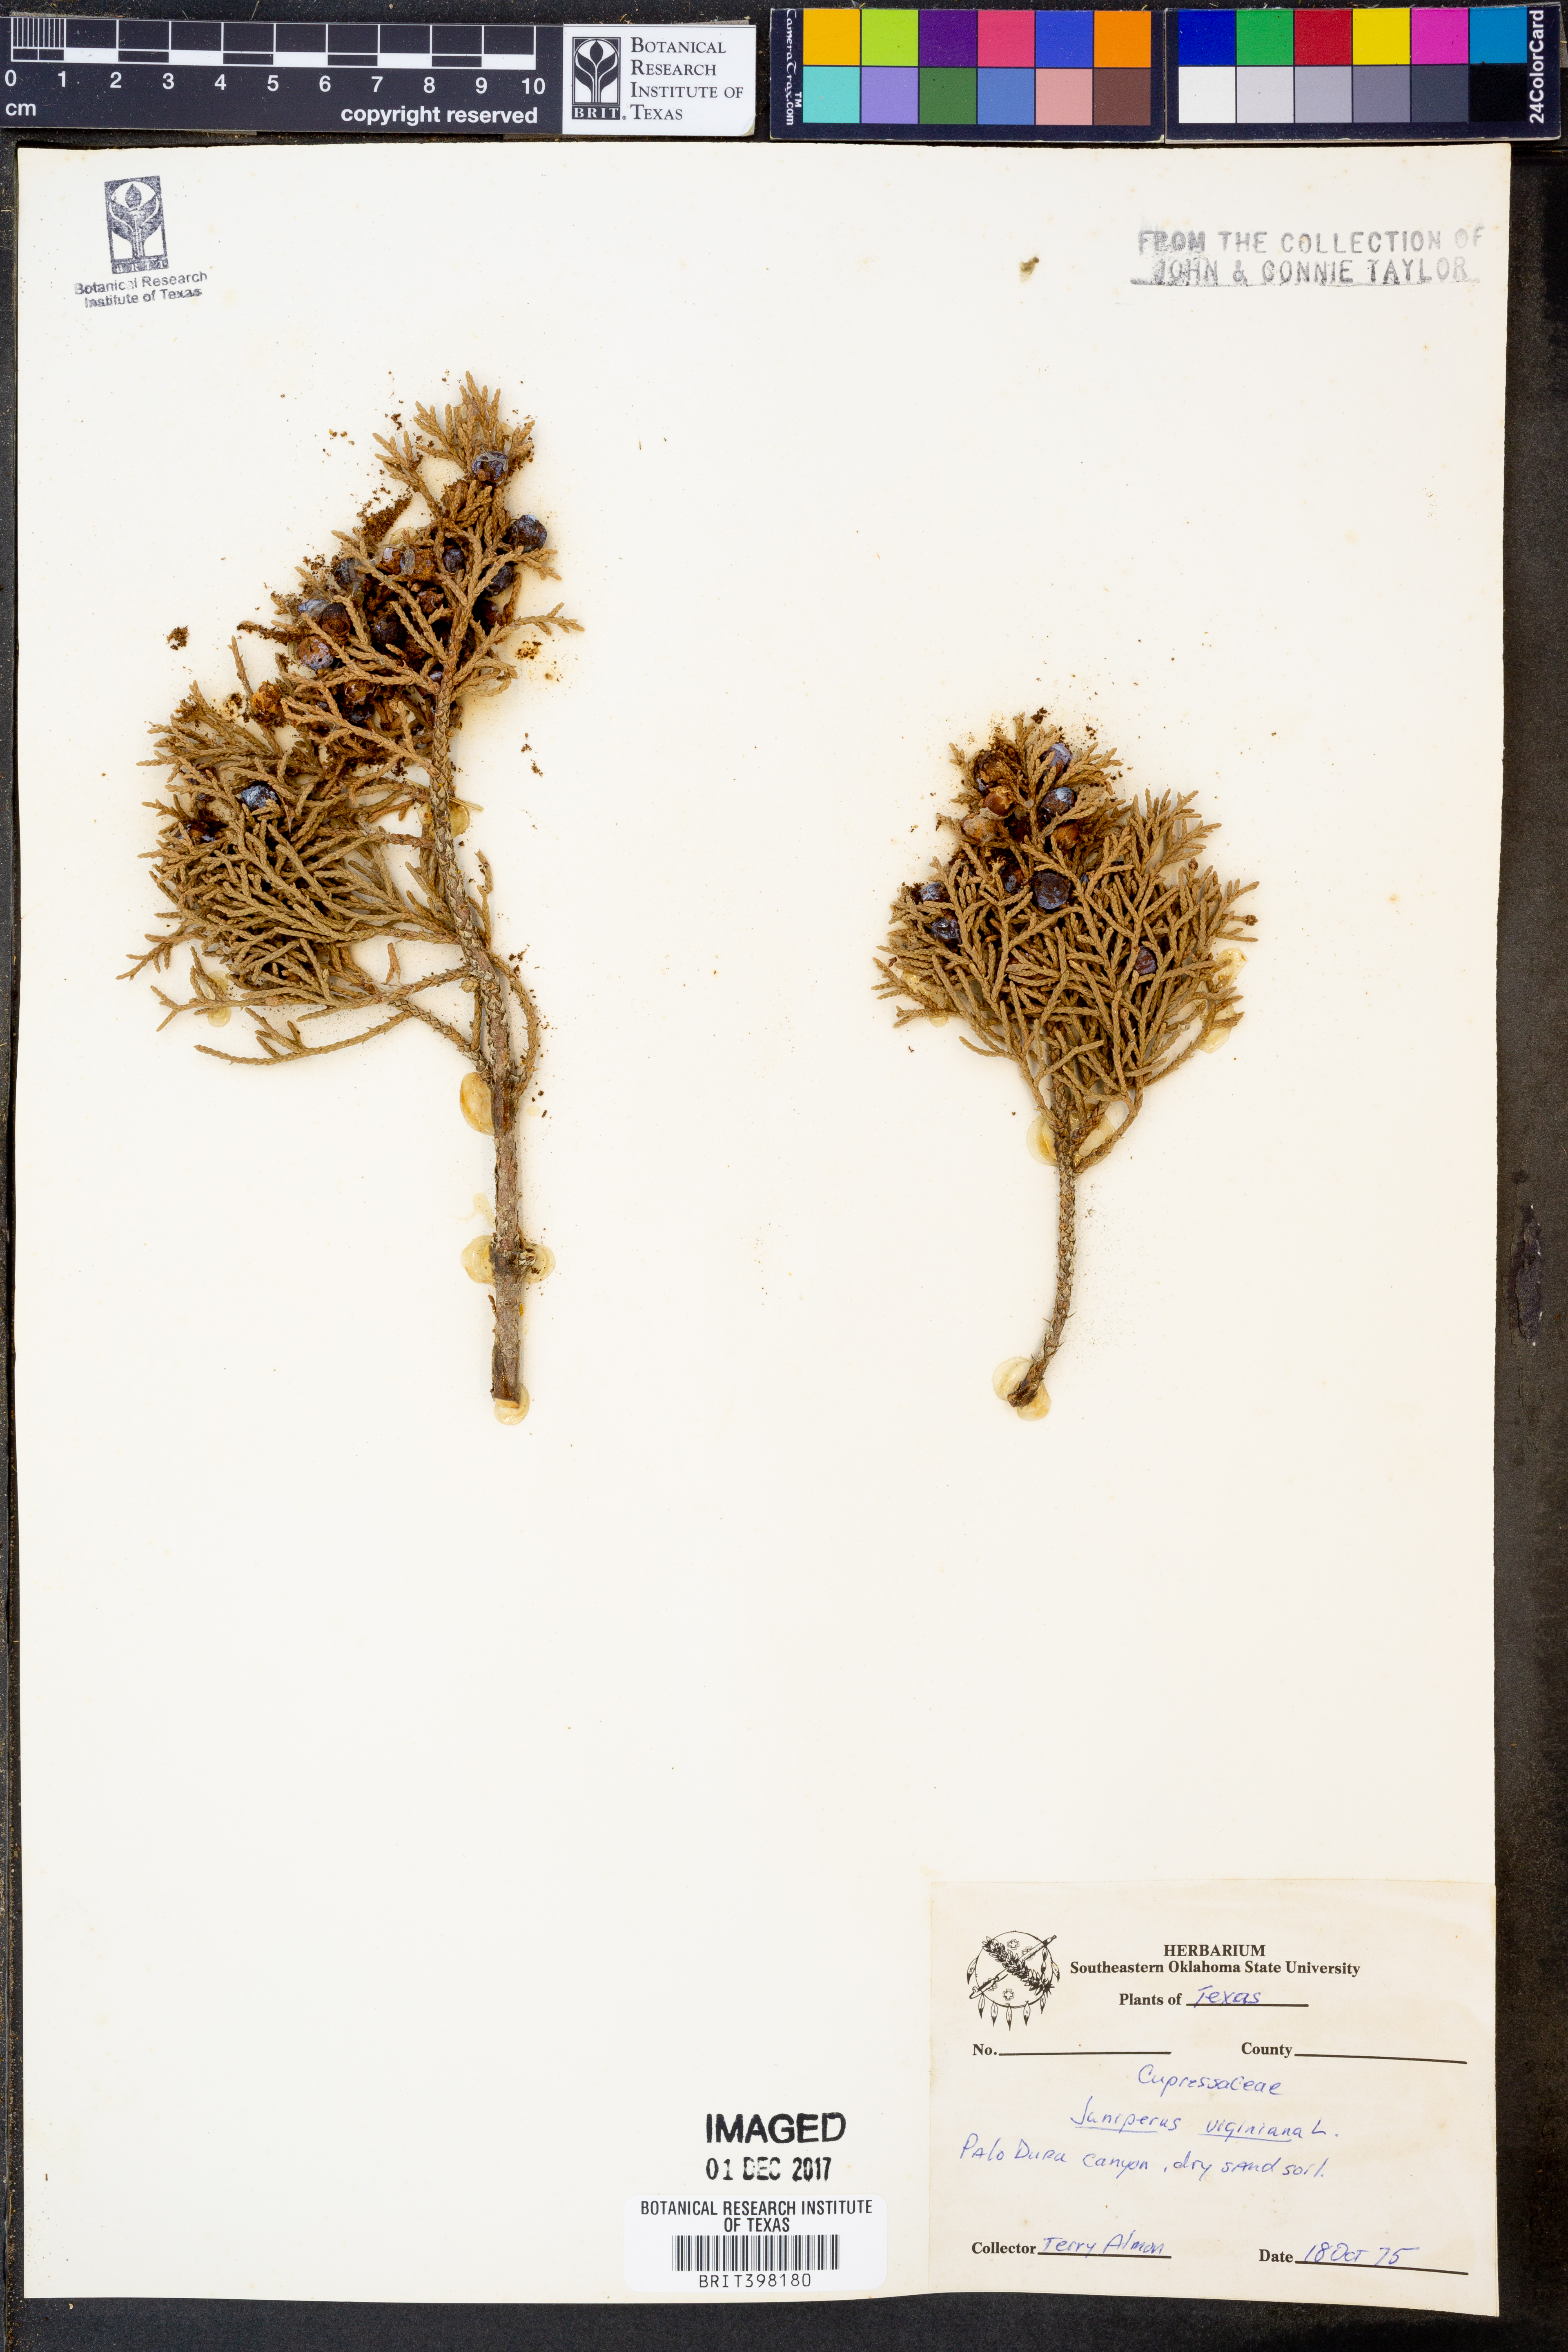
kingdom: Plantae
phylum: Tracheophyta
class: Pinopsida
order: Pinales
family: Cupressaceae
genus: Juniperus
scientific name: Juniperus virginiana
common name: Red juniper
